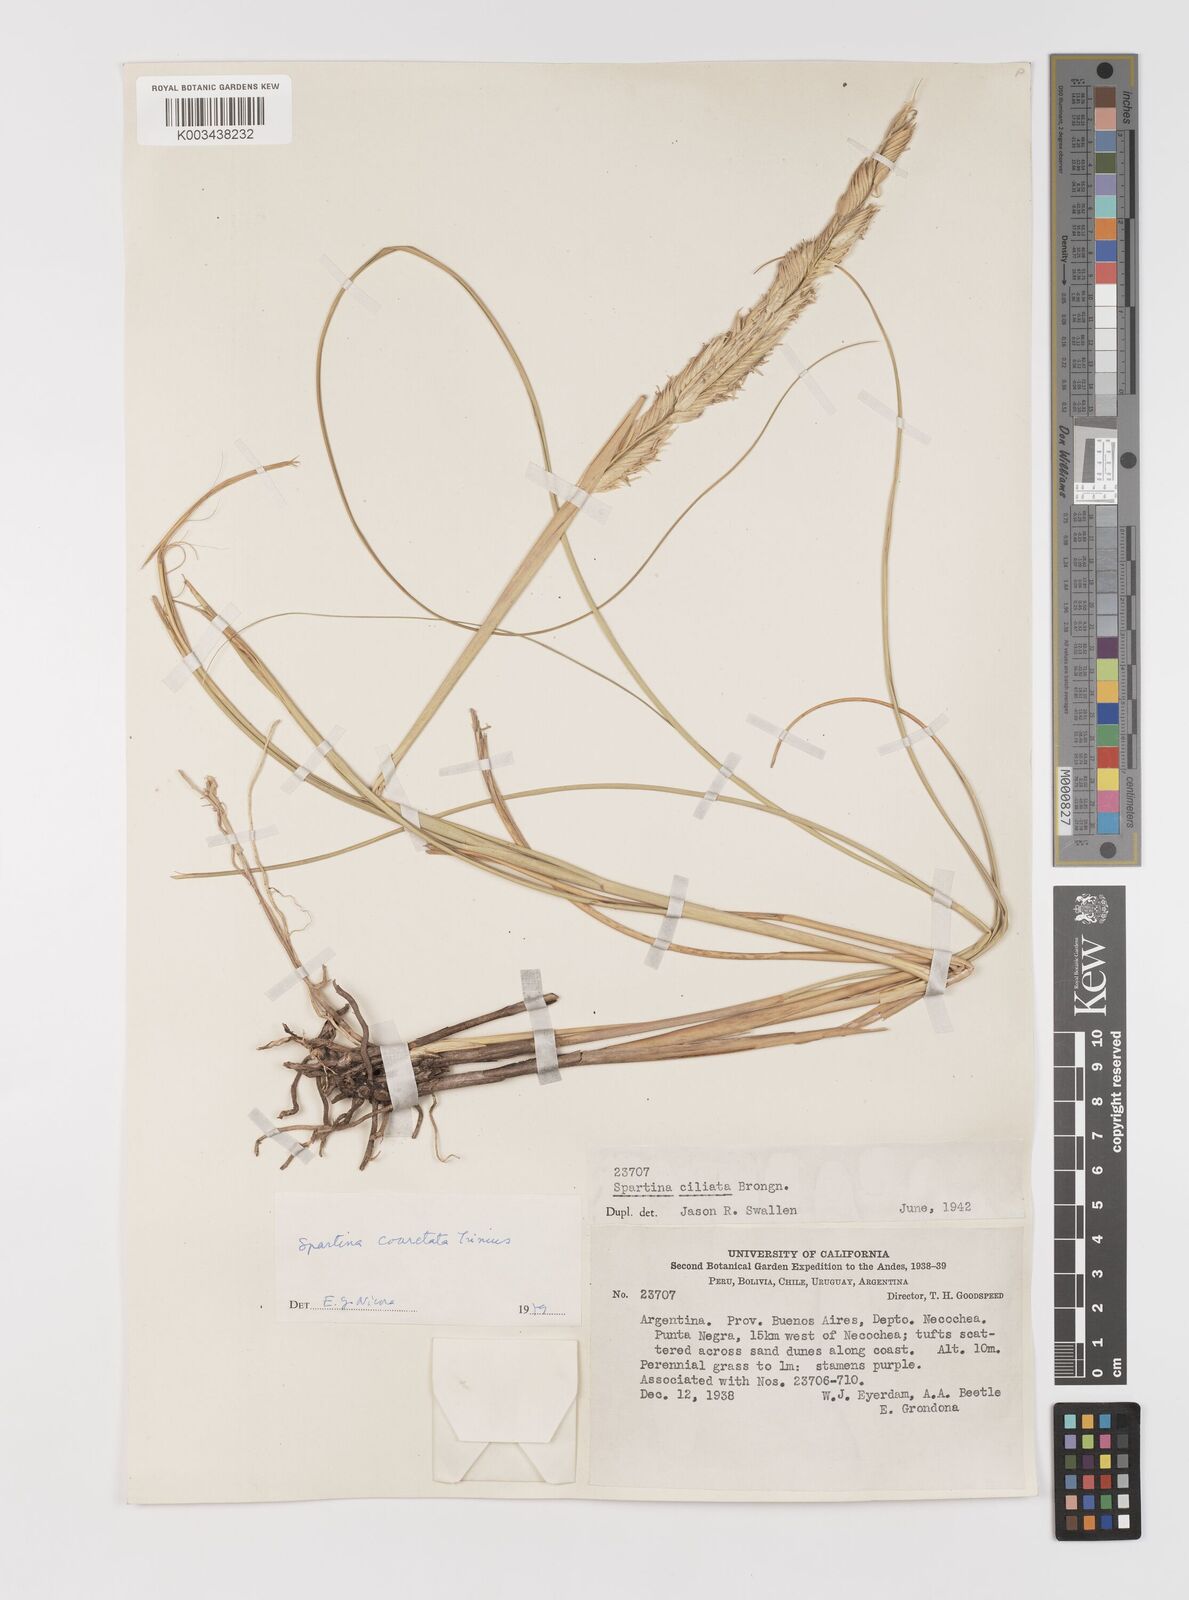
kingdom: Plantae
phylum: Tracheophyta
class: Liliopsida
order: Poales
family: Poaceae
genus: Sporobolus
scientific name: Sporobolus coarctatus
